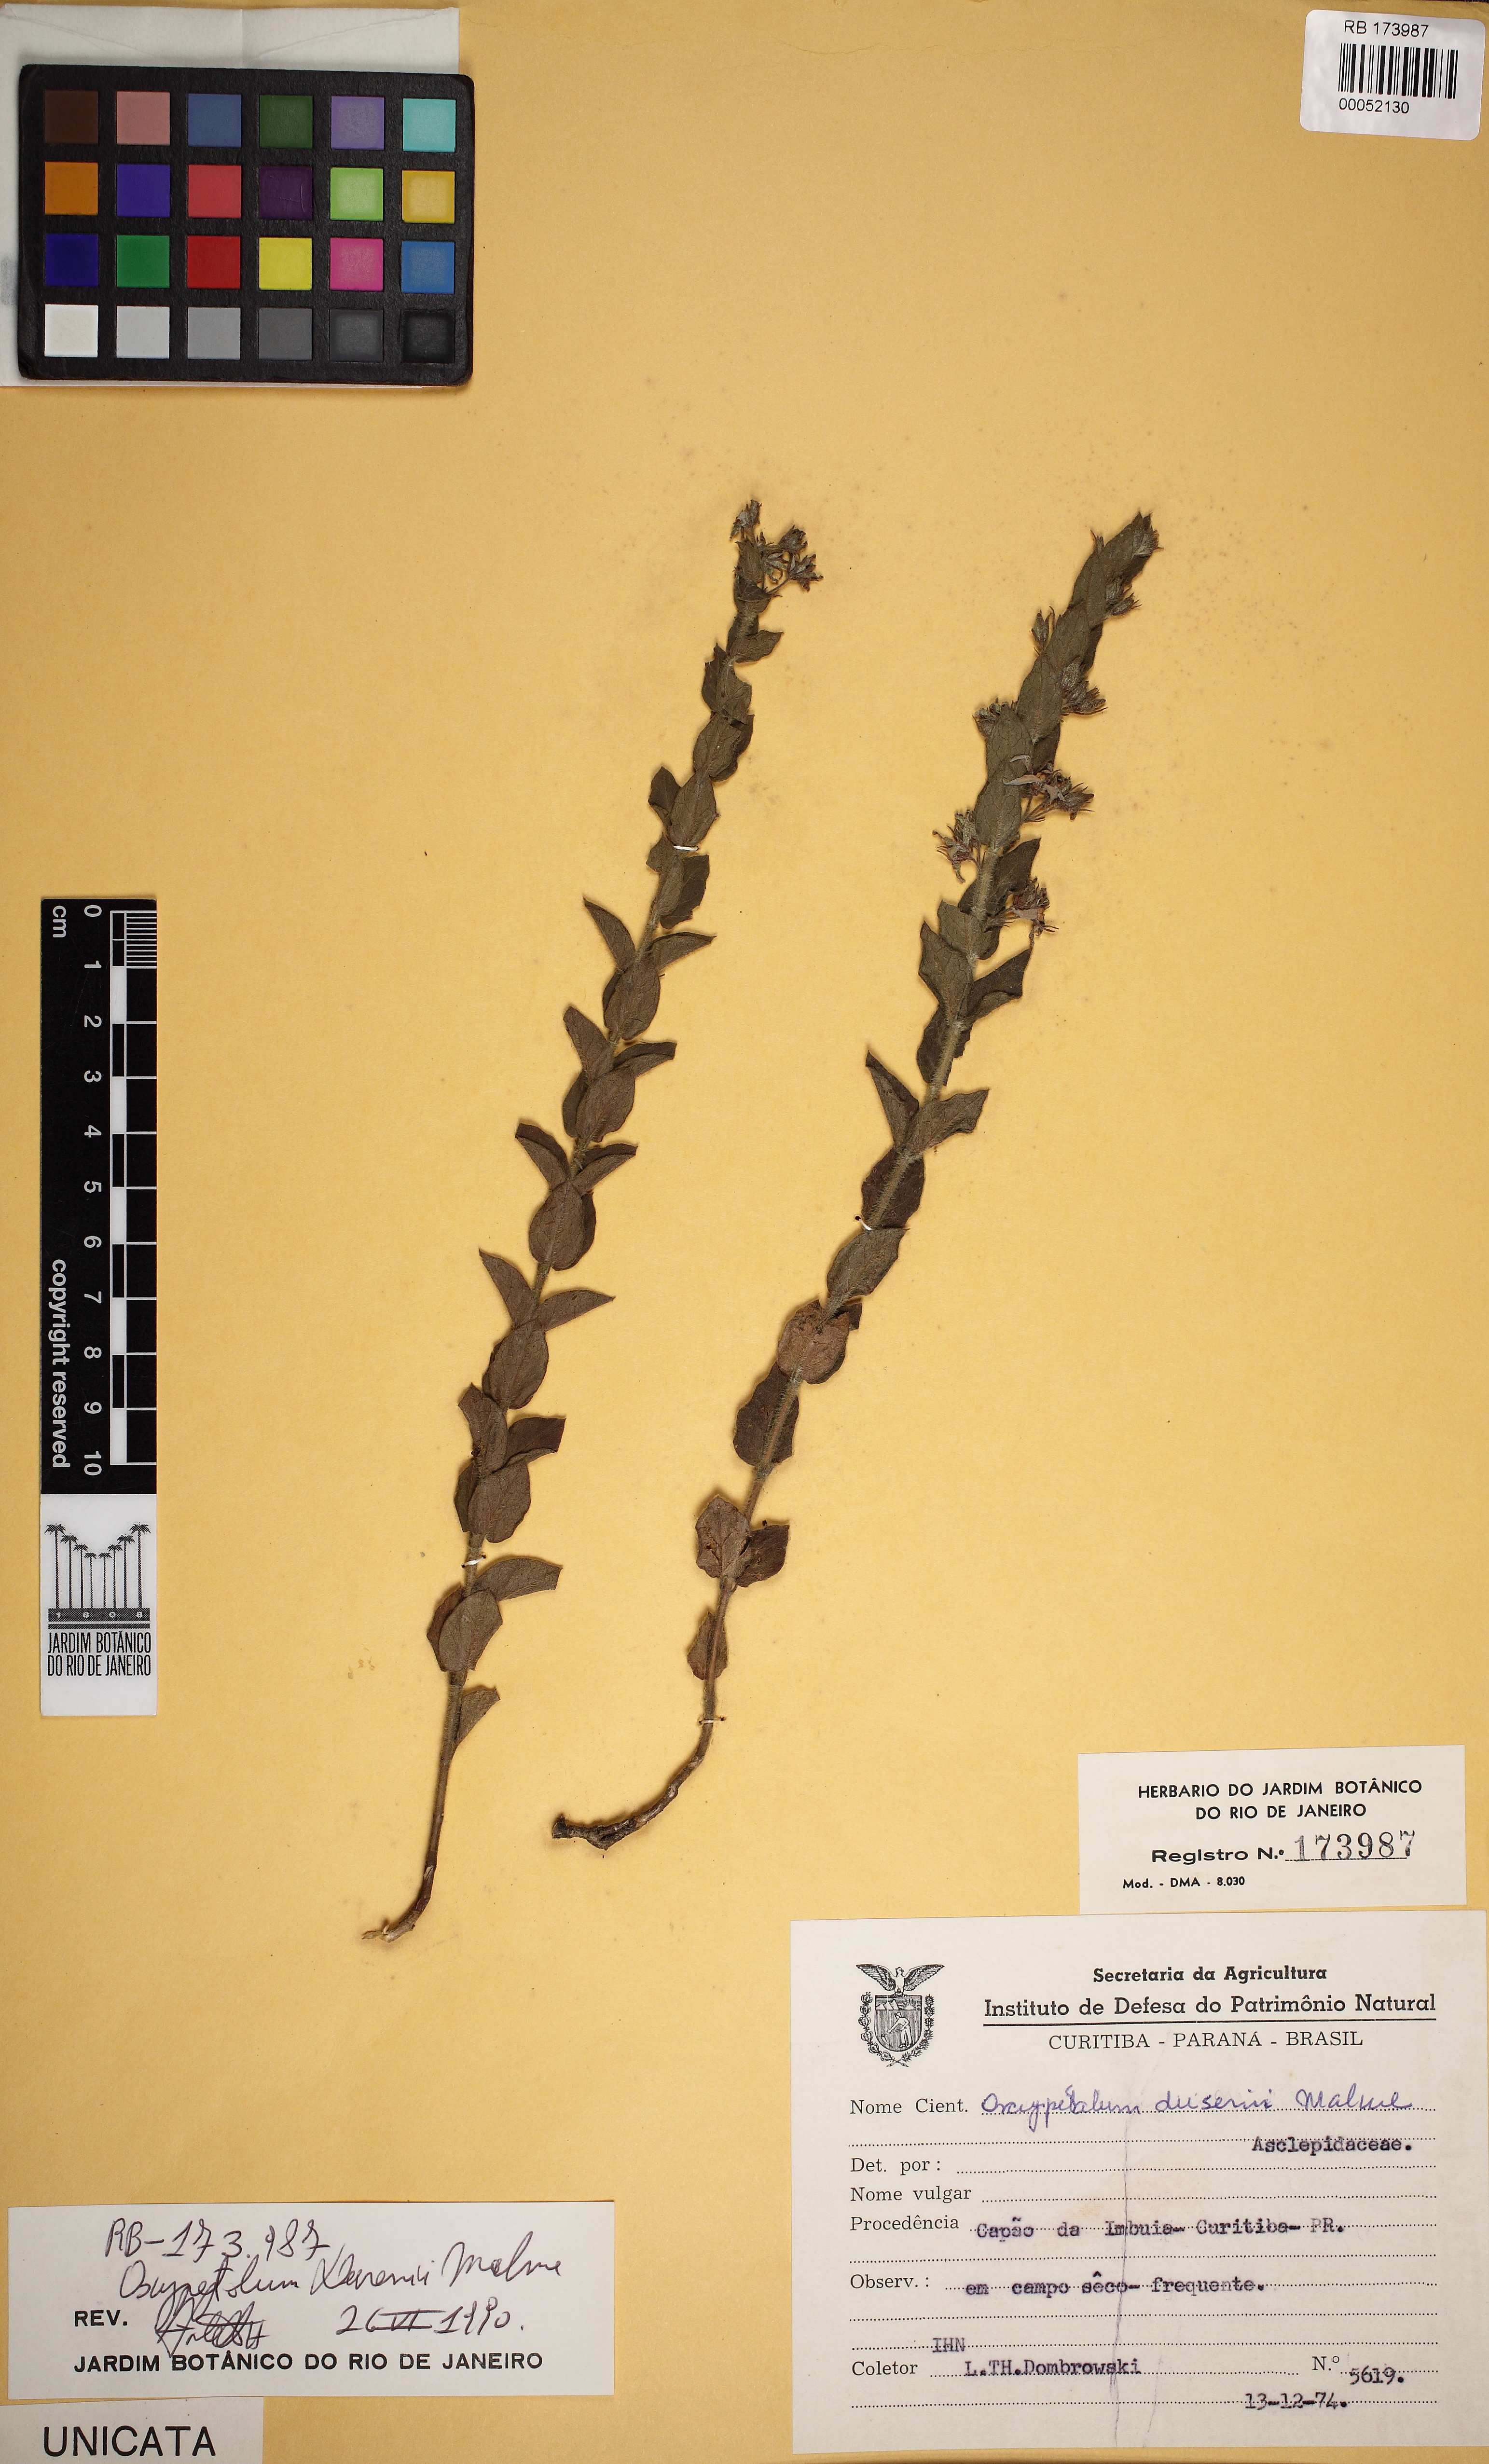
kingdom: Plantae
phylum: Tracheophyta
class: Magnoliopsida
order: Gentianales
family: Apocynaceae
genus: Oxypetalum
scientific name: Oxypetalum dusenii
